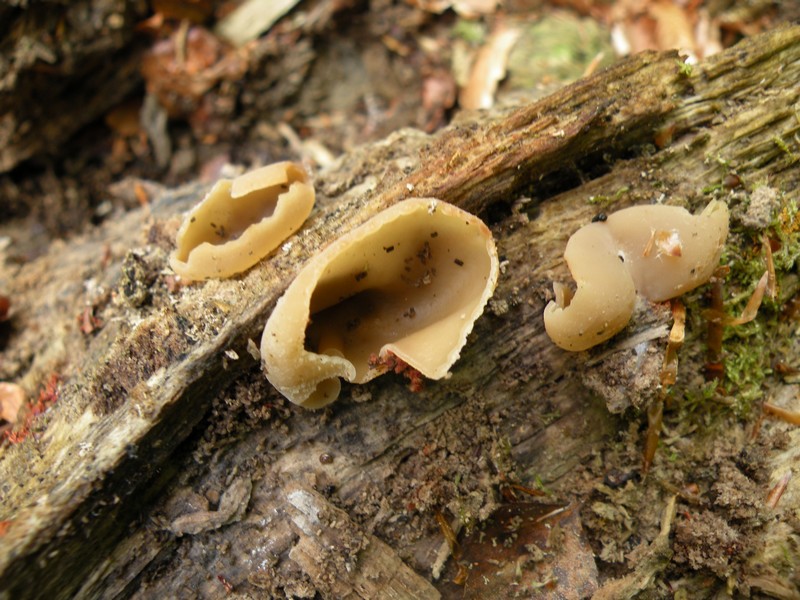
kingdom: Fungi
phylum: Ascomycota
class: Pezizomycetes
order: Pezizales
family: Pezizaceae
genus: Peziza
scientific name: Peziza varia
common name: Ved-bægersvamp
